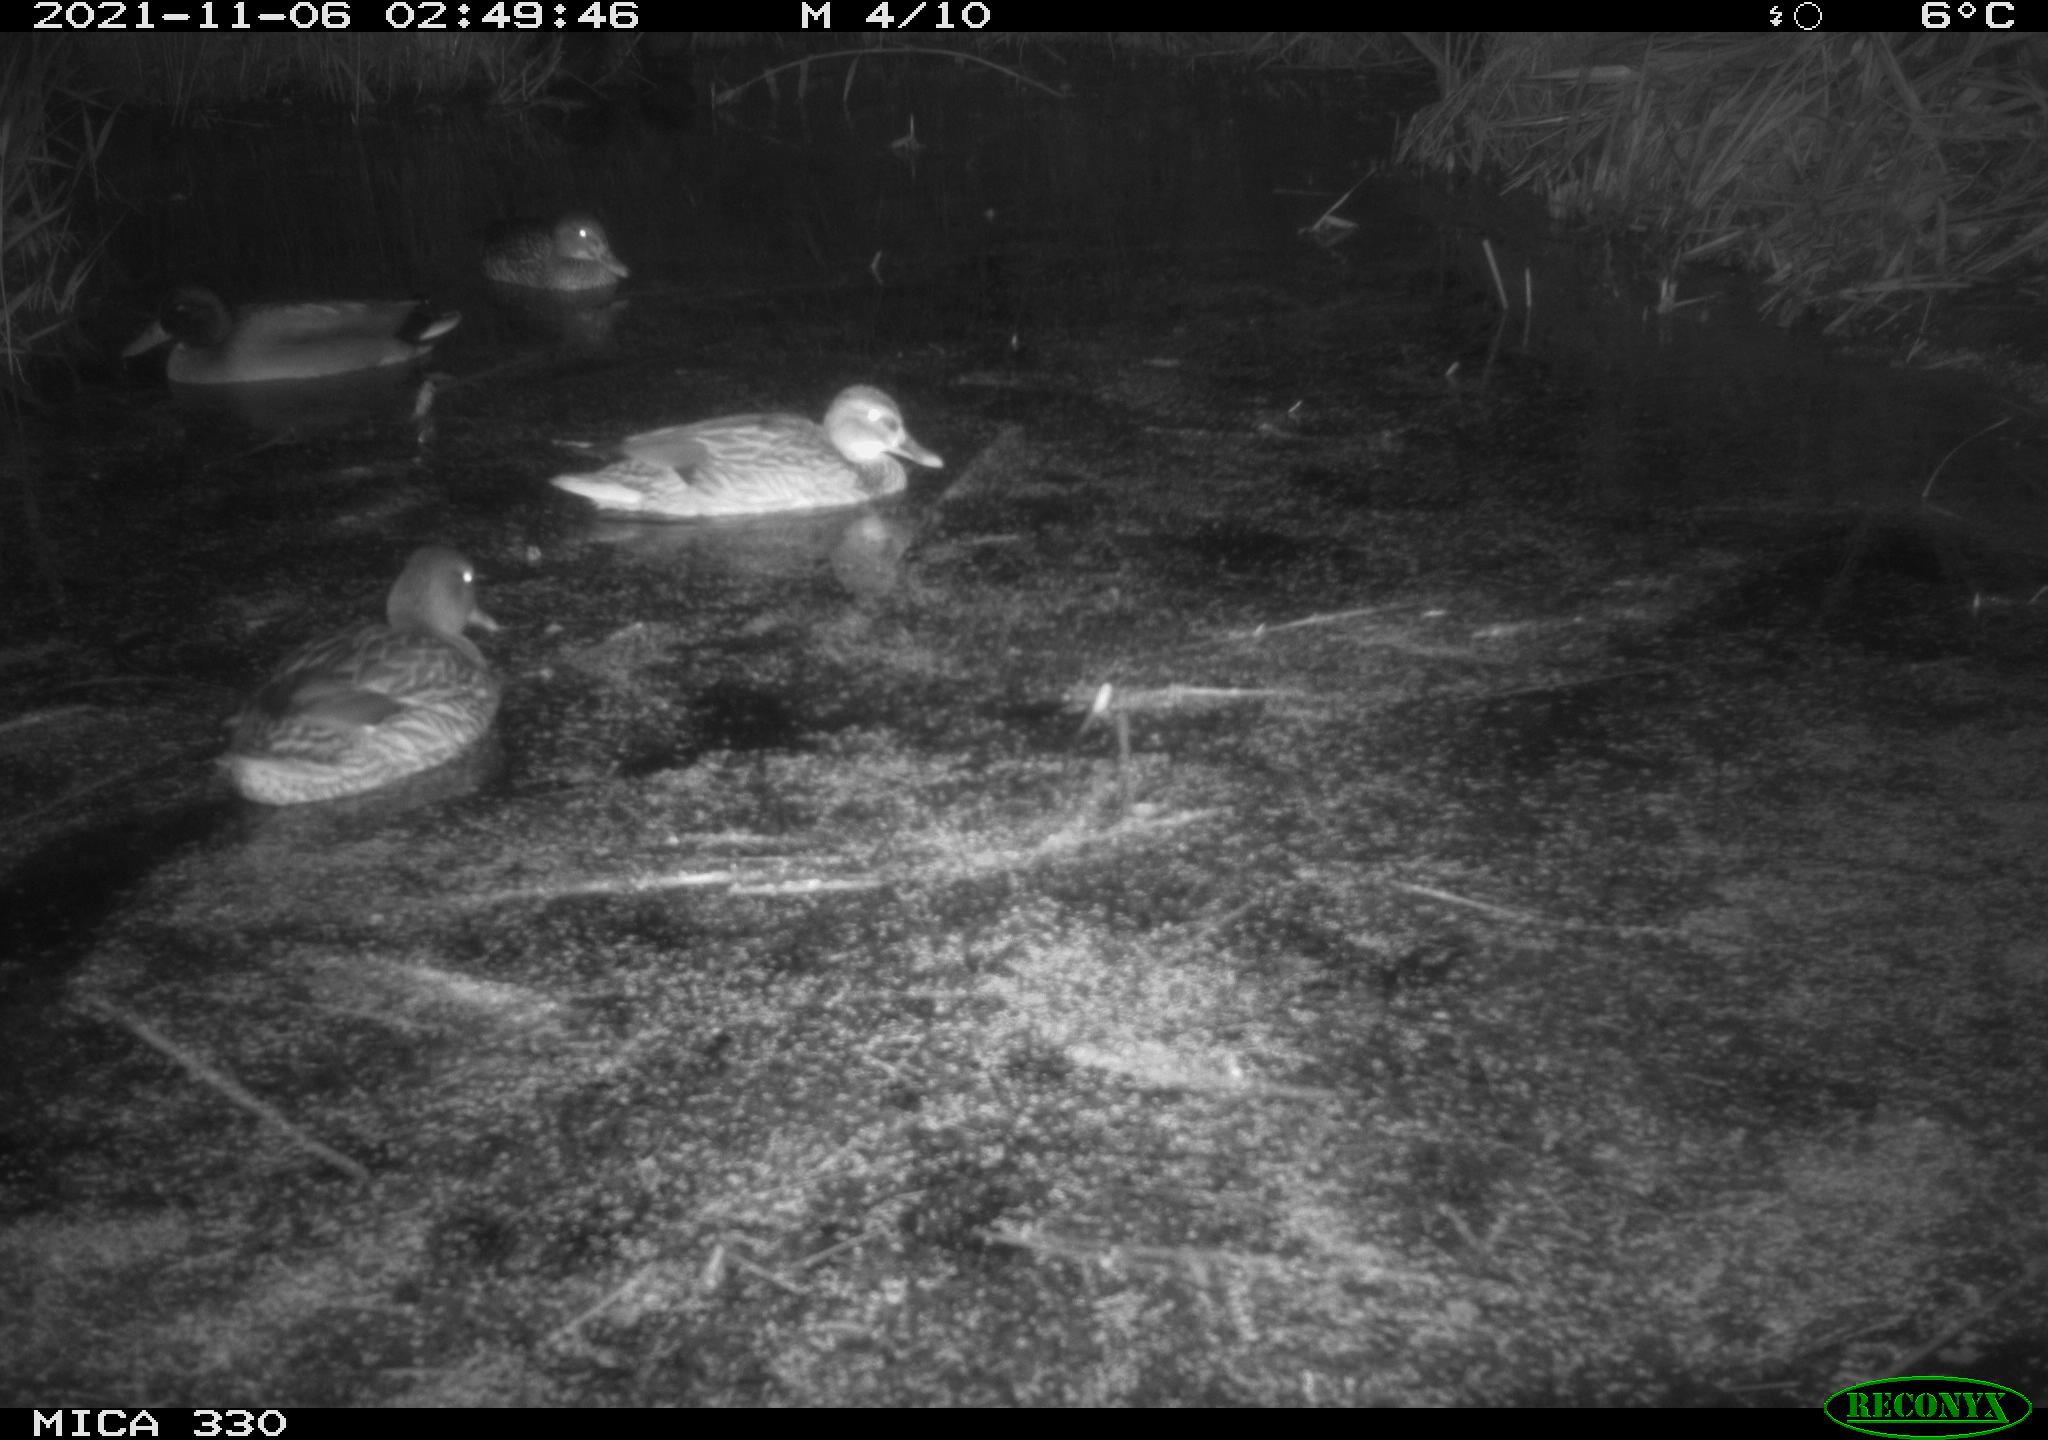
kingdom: Animalia
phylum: Chordata
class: Aves
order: Anseriformes
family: Anatidae
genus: Anas
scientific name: Anas platyrhynchos
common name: Mallard
